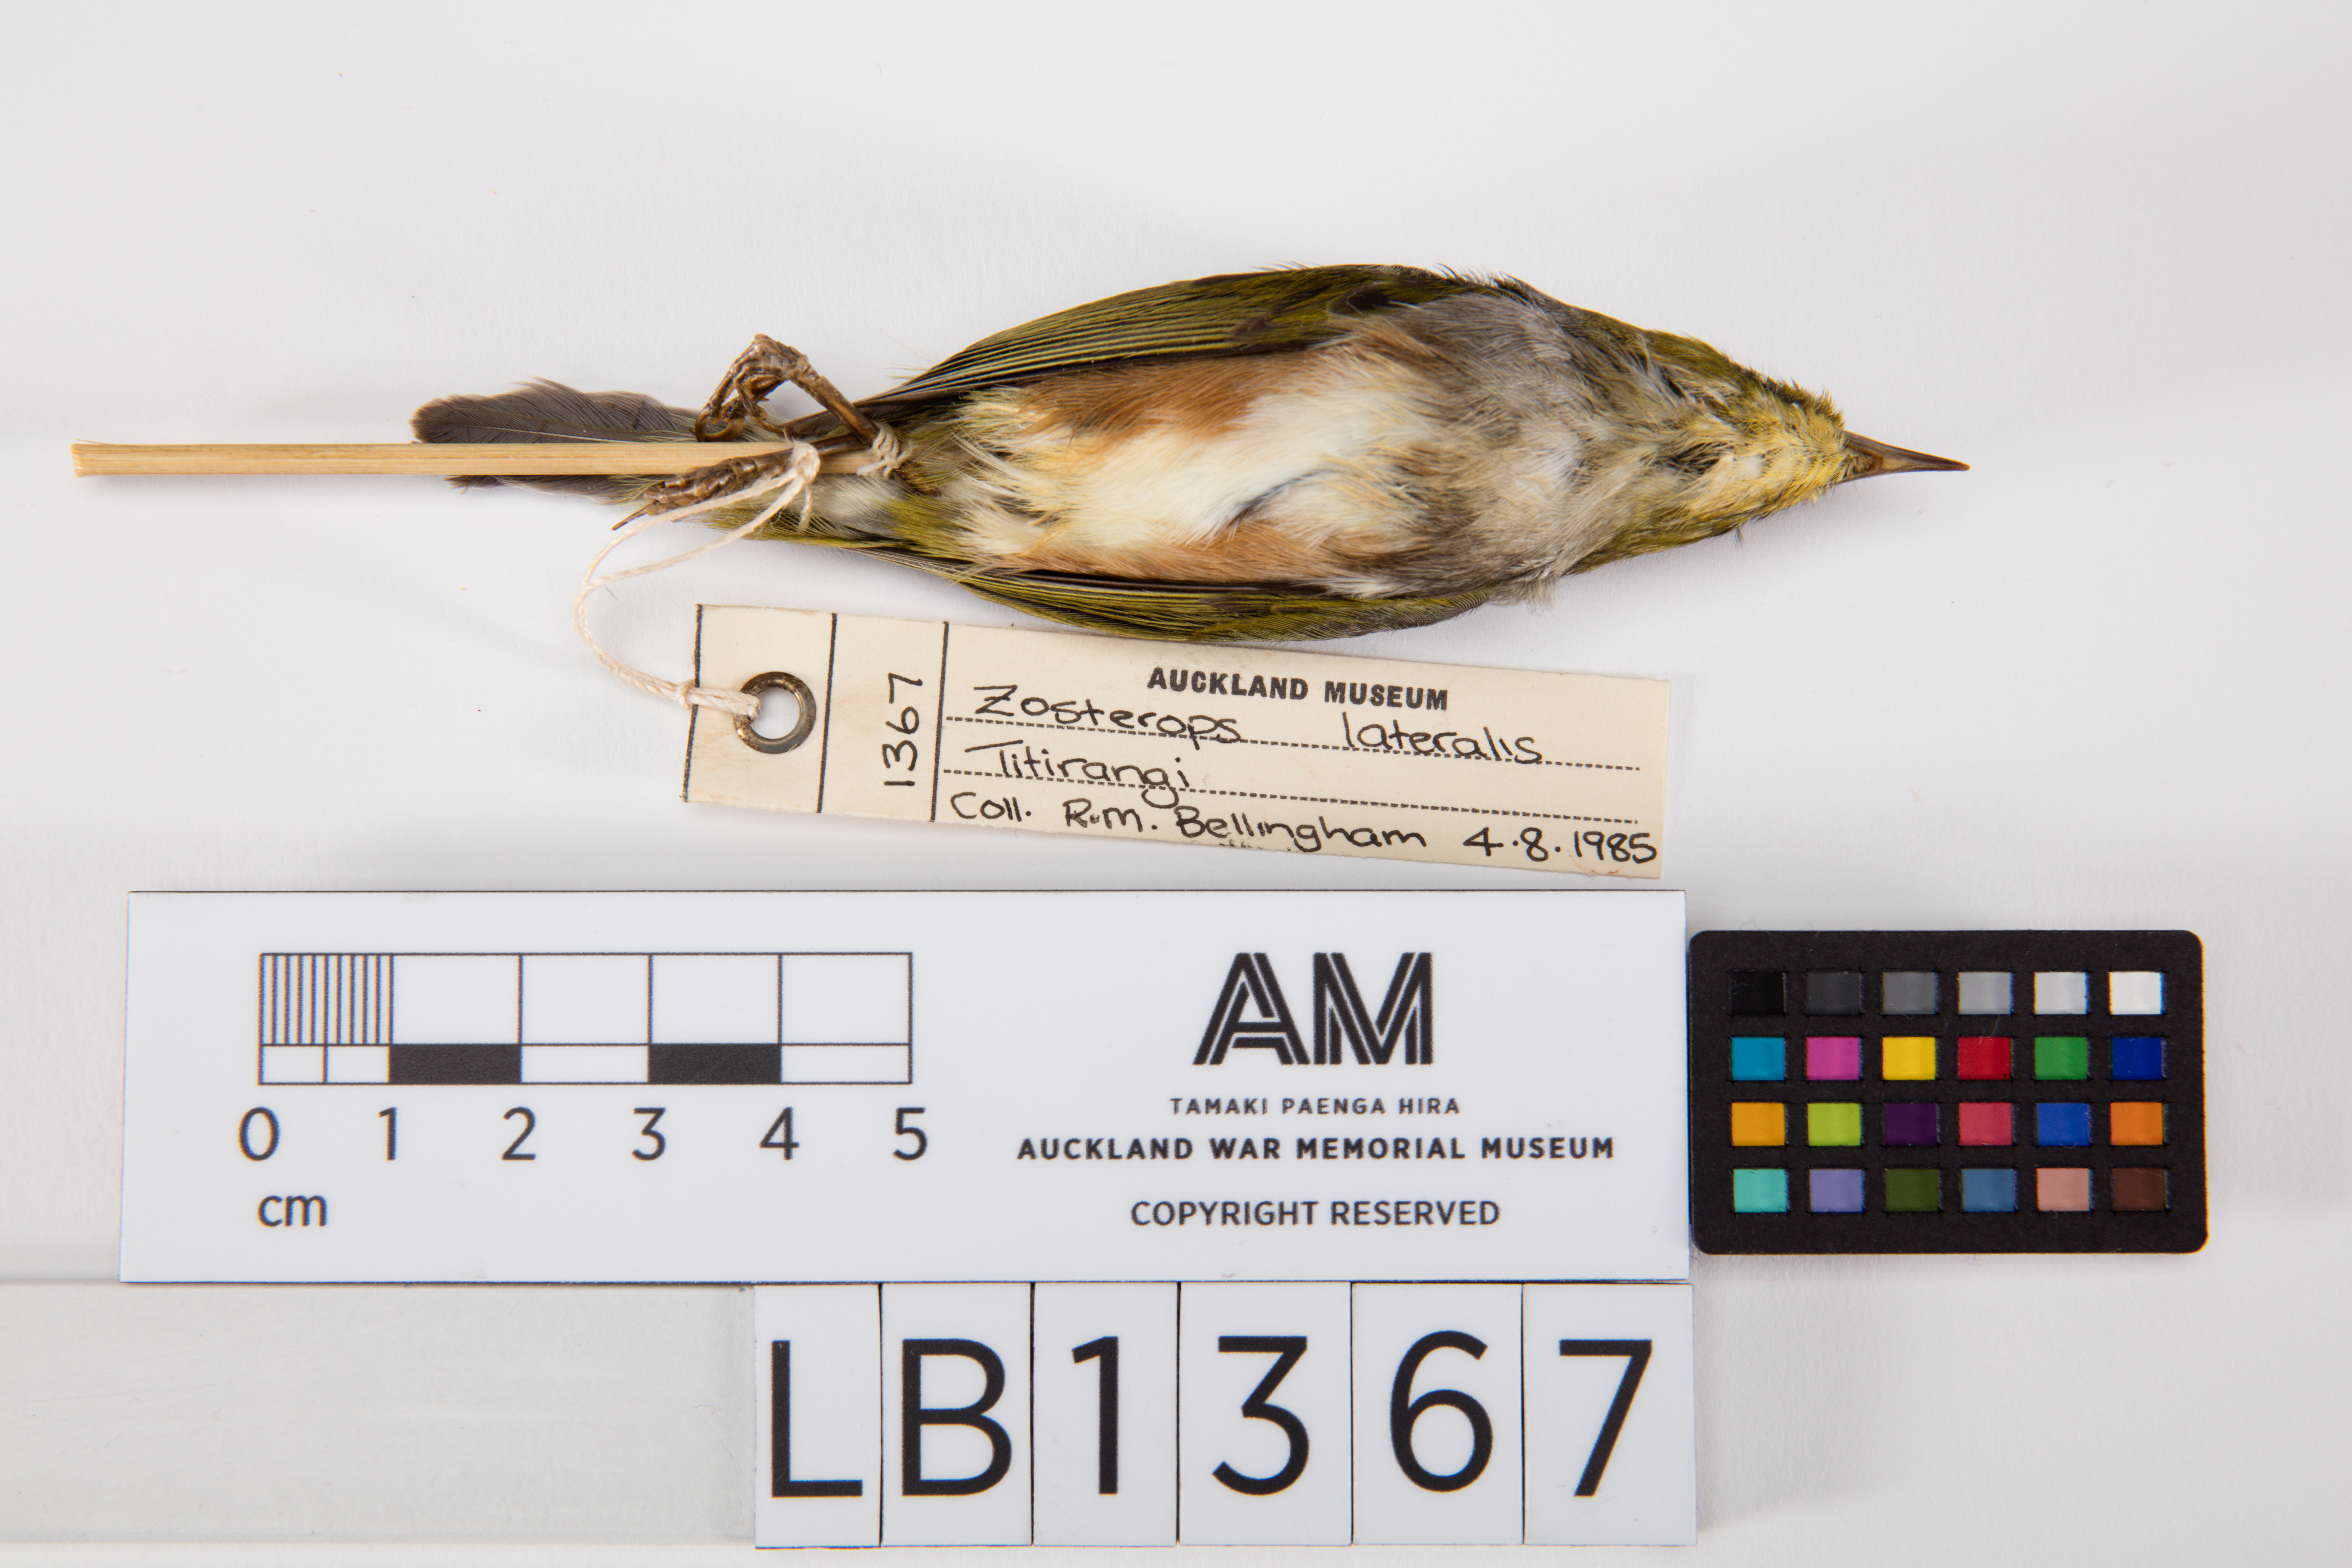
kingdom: Animalia
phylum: Chordata
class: Aves
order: Passeriformes
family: Zosteropidae
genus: Zosterops
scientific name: Zosterops lateralis
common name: Silvereye
